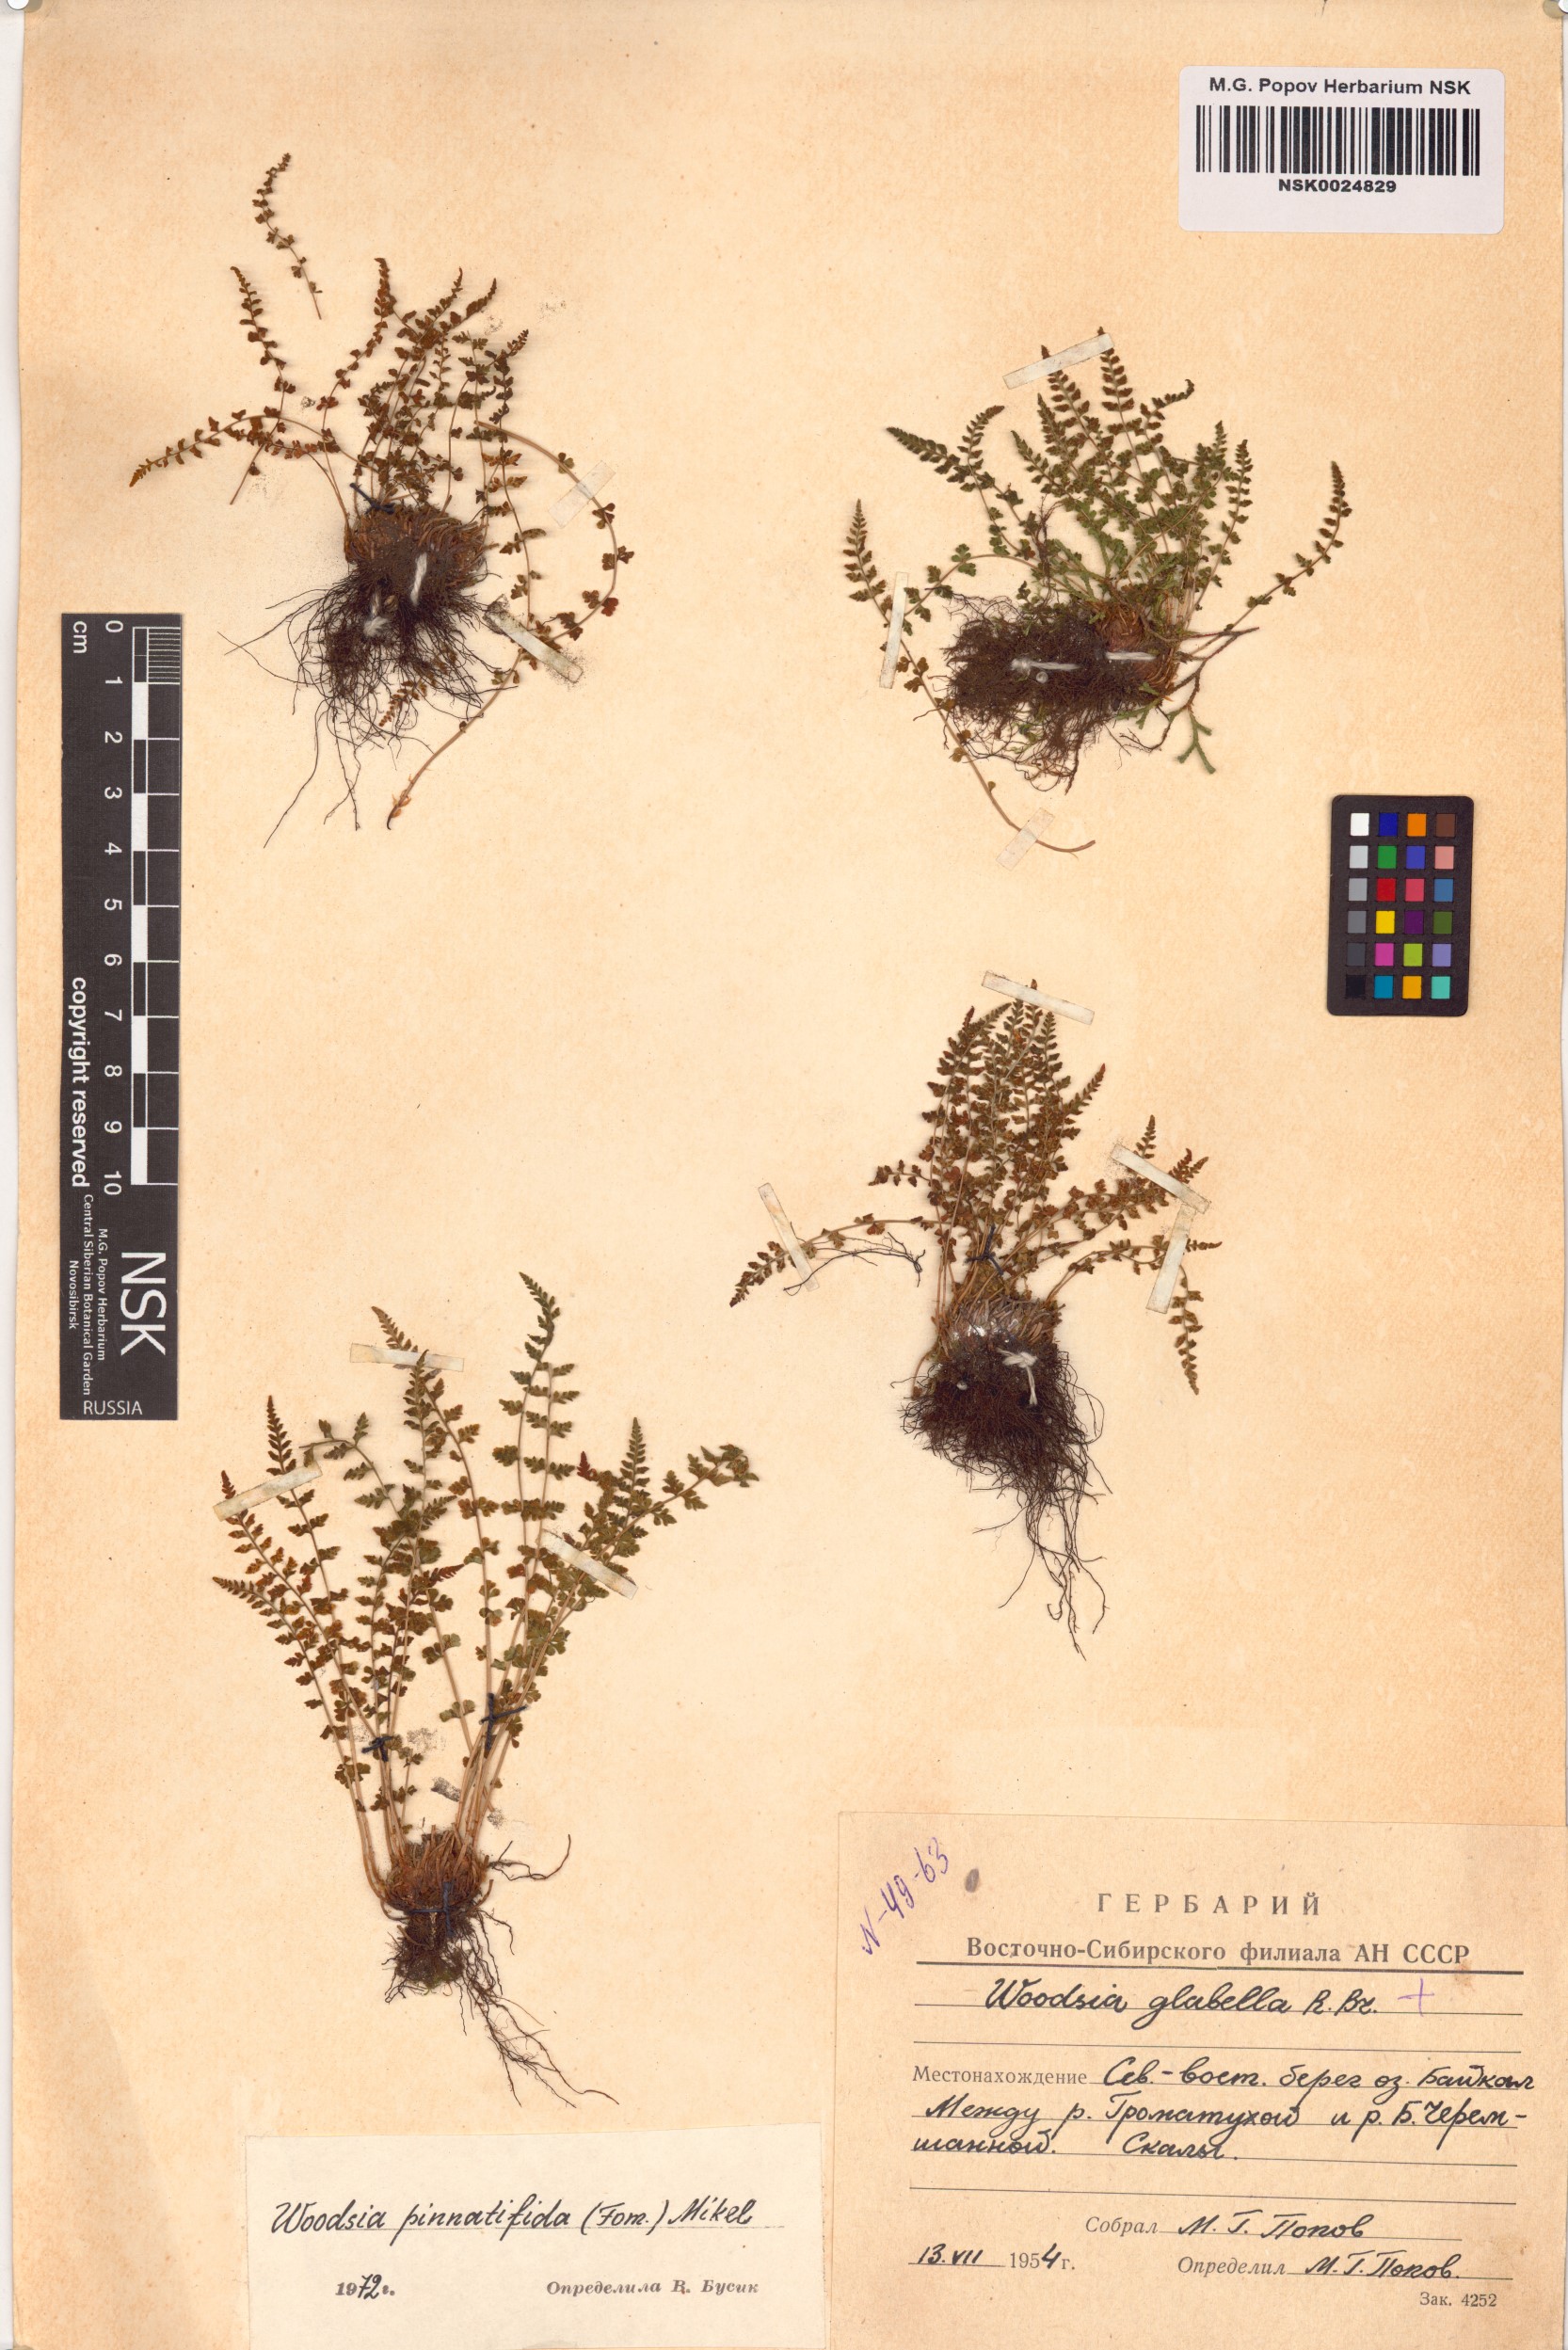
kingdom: Plantae
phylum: Tracheophyta
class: Polypodiopsida
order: Polypodiales
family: Woodsiaceae
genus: Woodsia
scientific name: Woodsia pulchella
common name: Graceful woodsia
